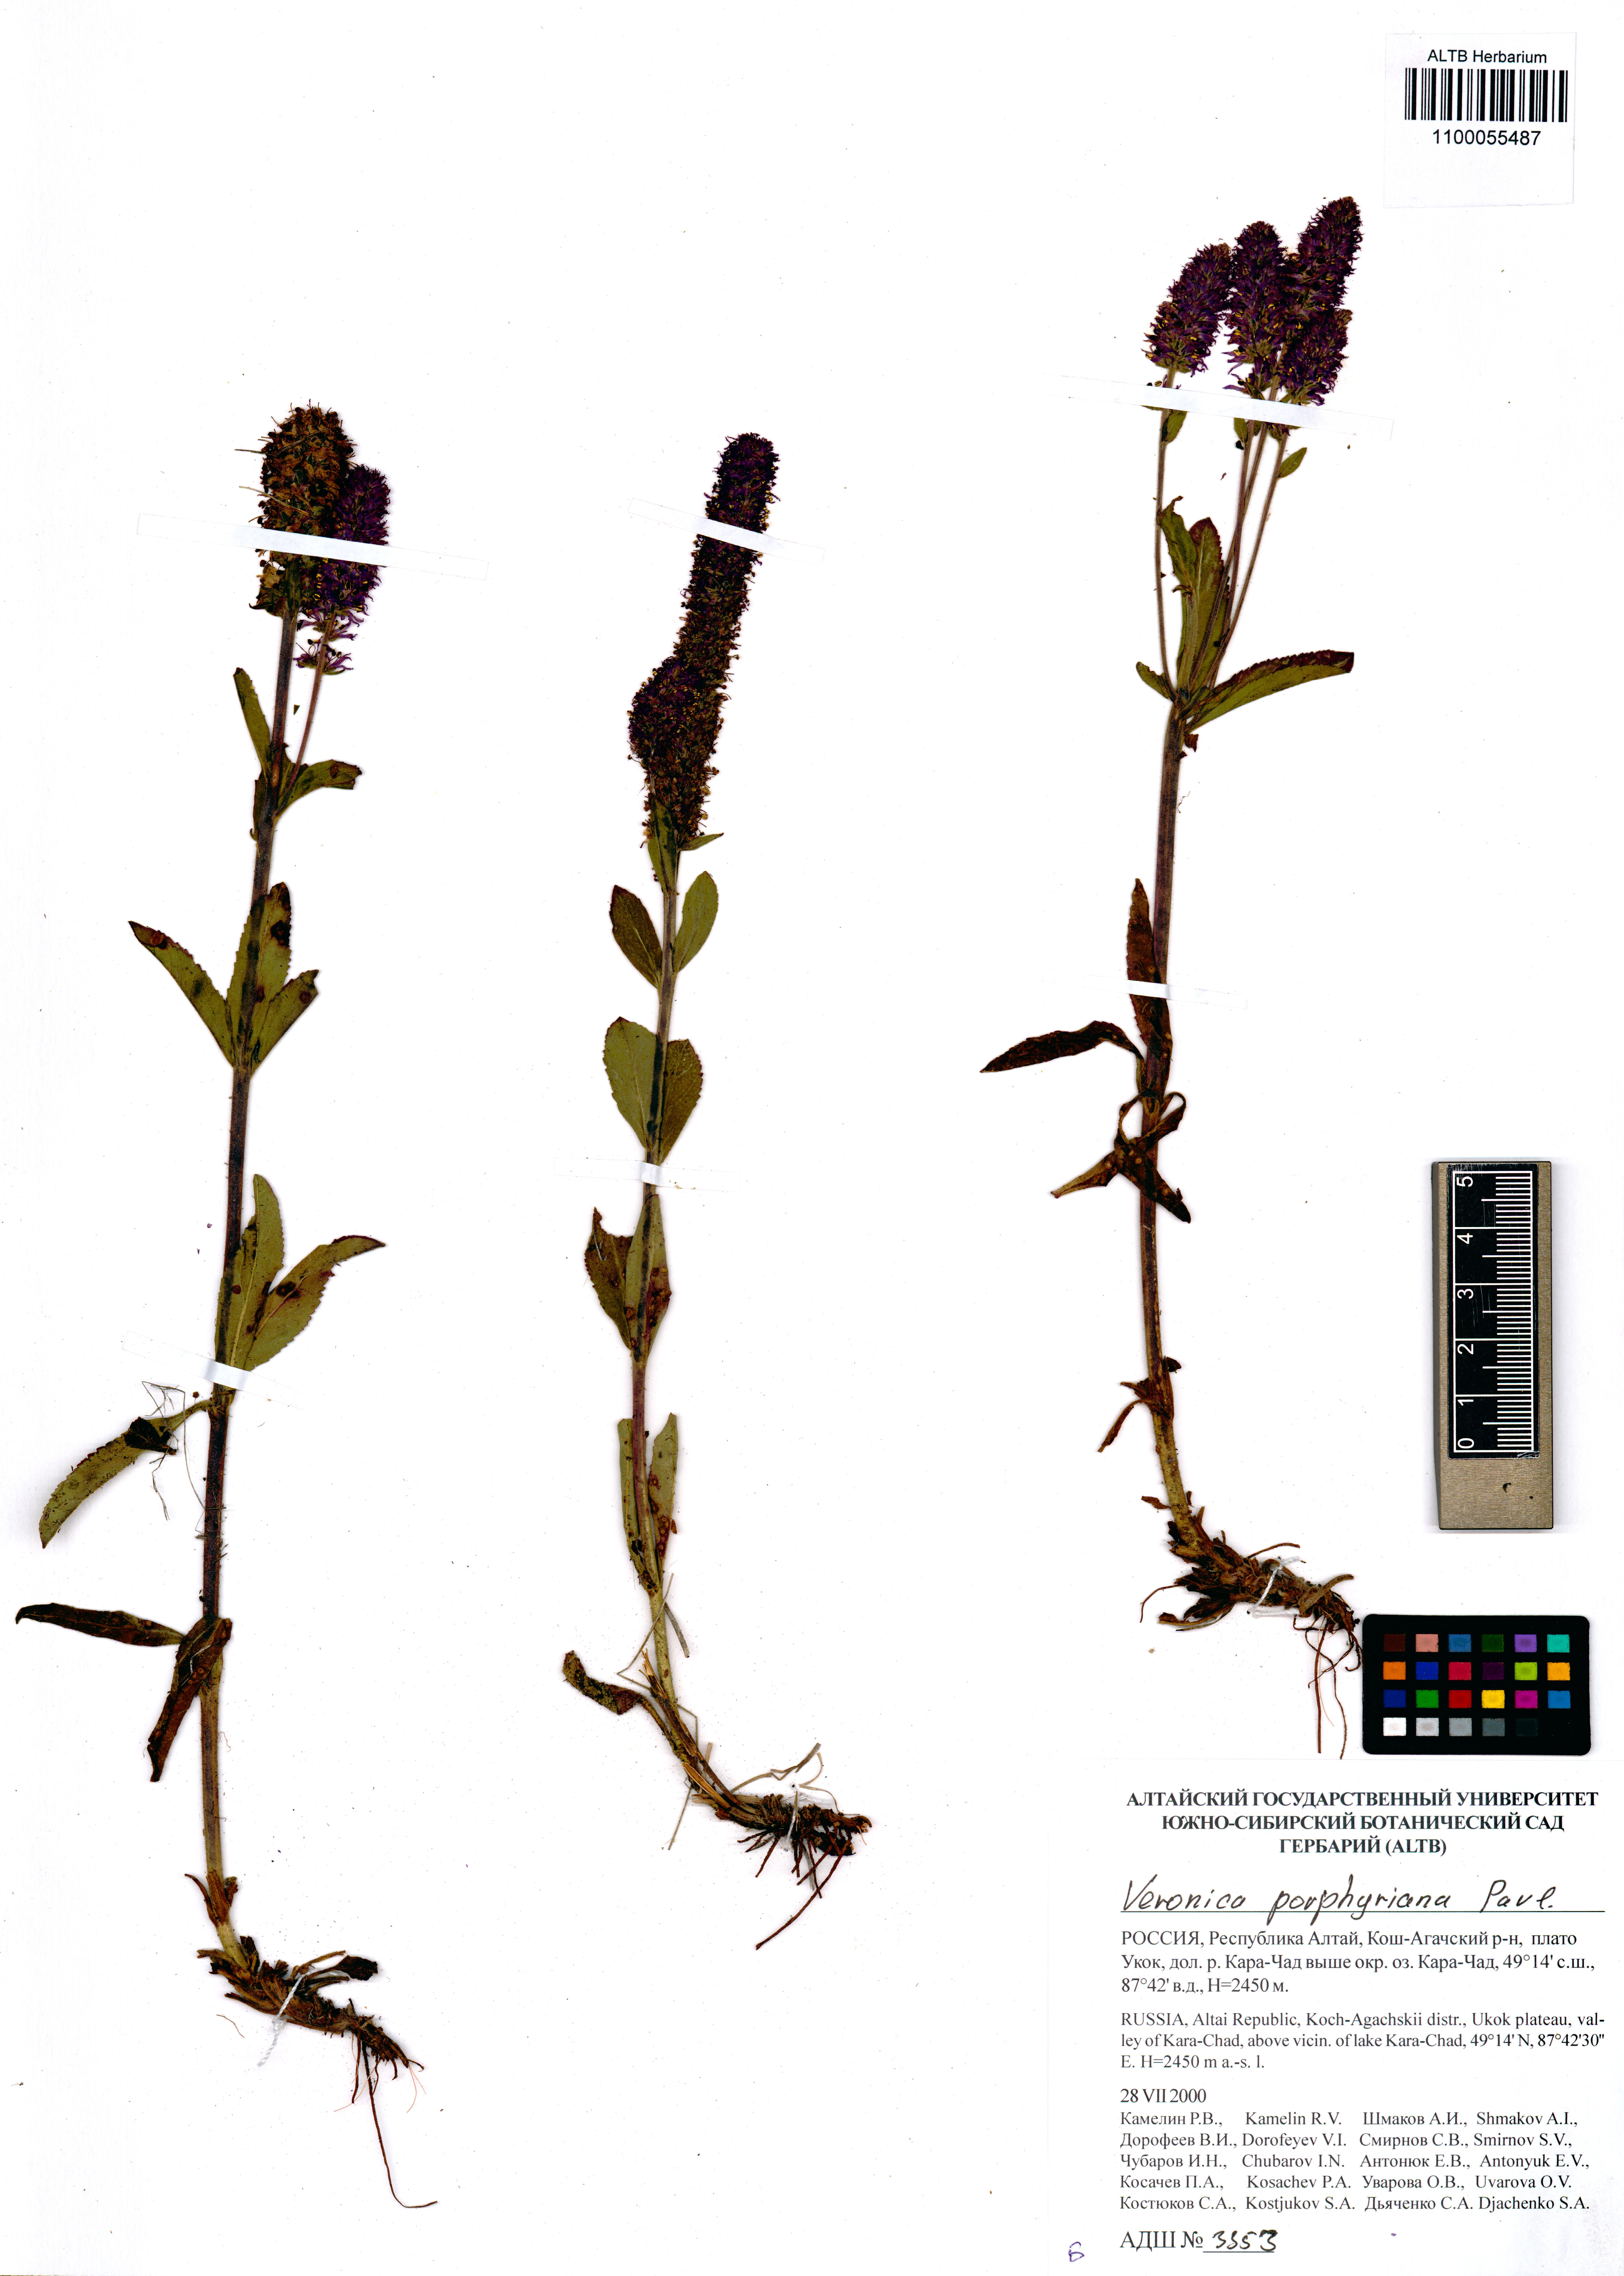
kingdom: Plantae
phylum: Tracheophyta
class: Magnoliopsida
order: Lamiales
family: Plantaginaceae
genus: Veronica
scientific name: Veronica porphyriana
